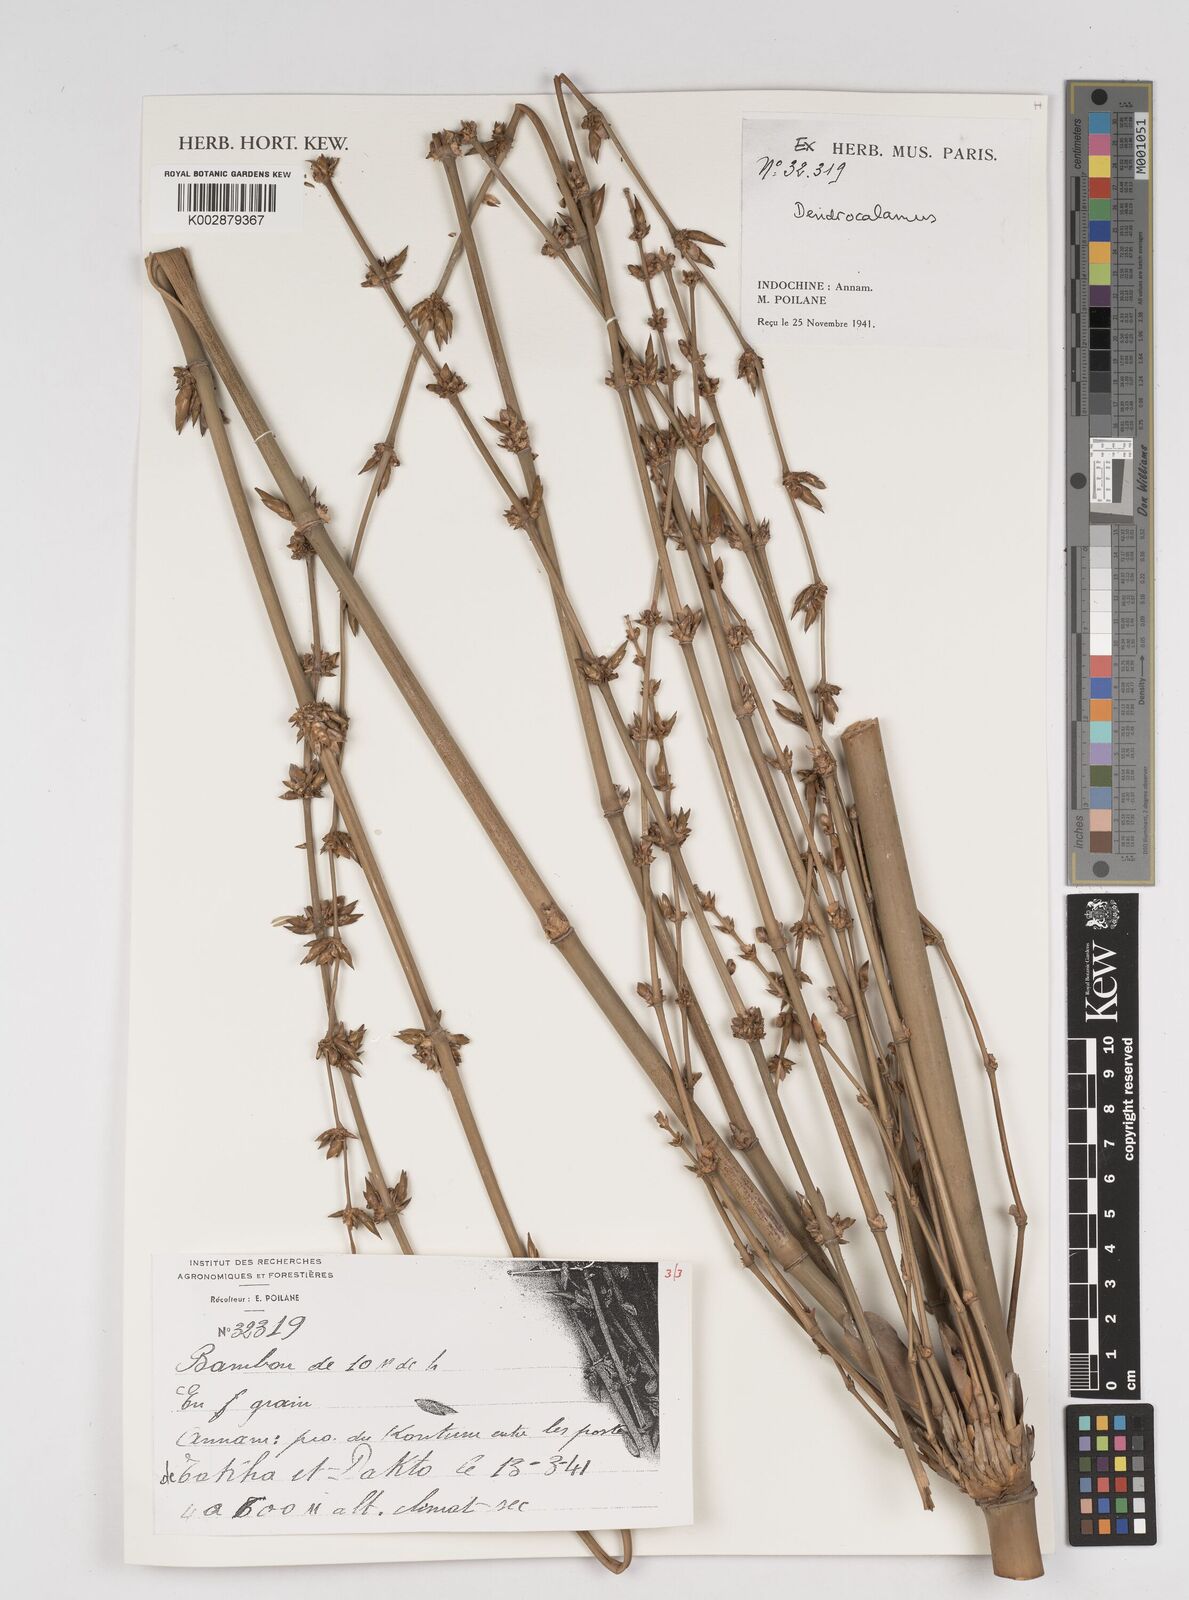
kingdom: Plantae
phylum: Tracheophyta
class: Liliopsida
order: Poales
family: Poaceae
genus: Dendrocalamus
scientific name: Dendrocalamus
